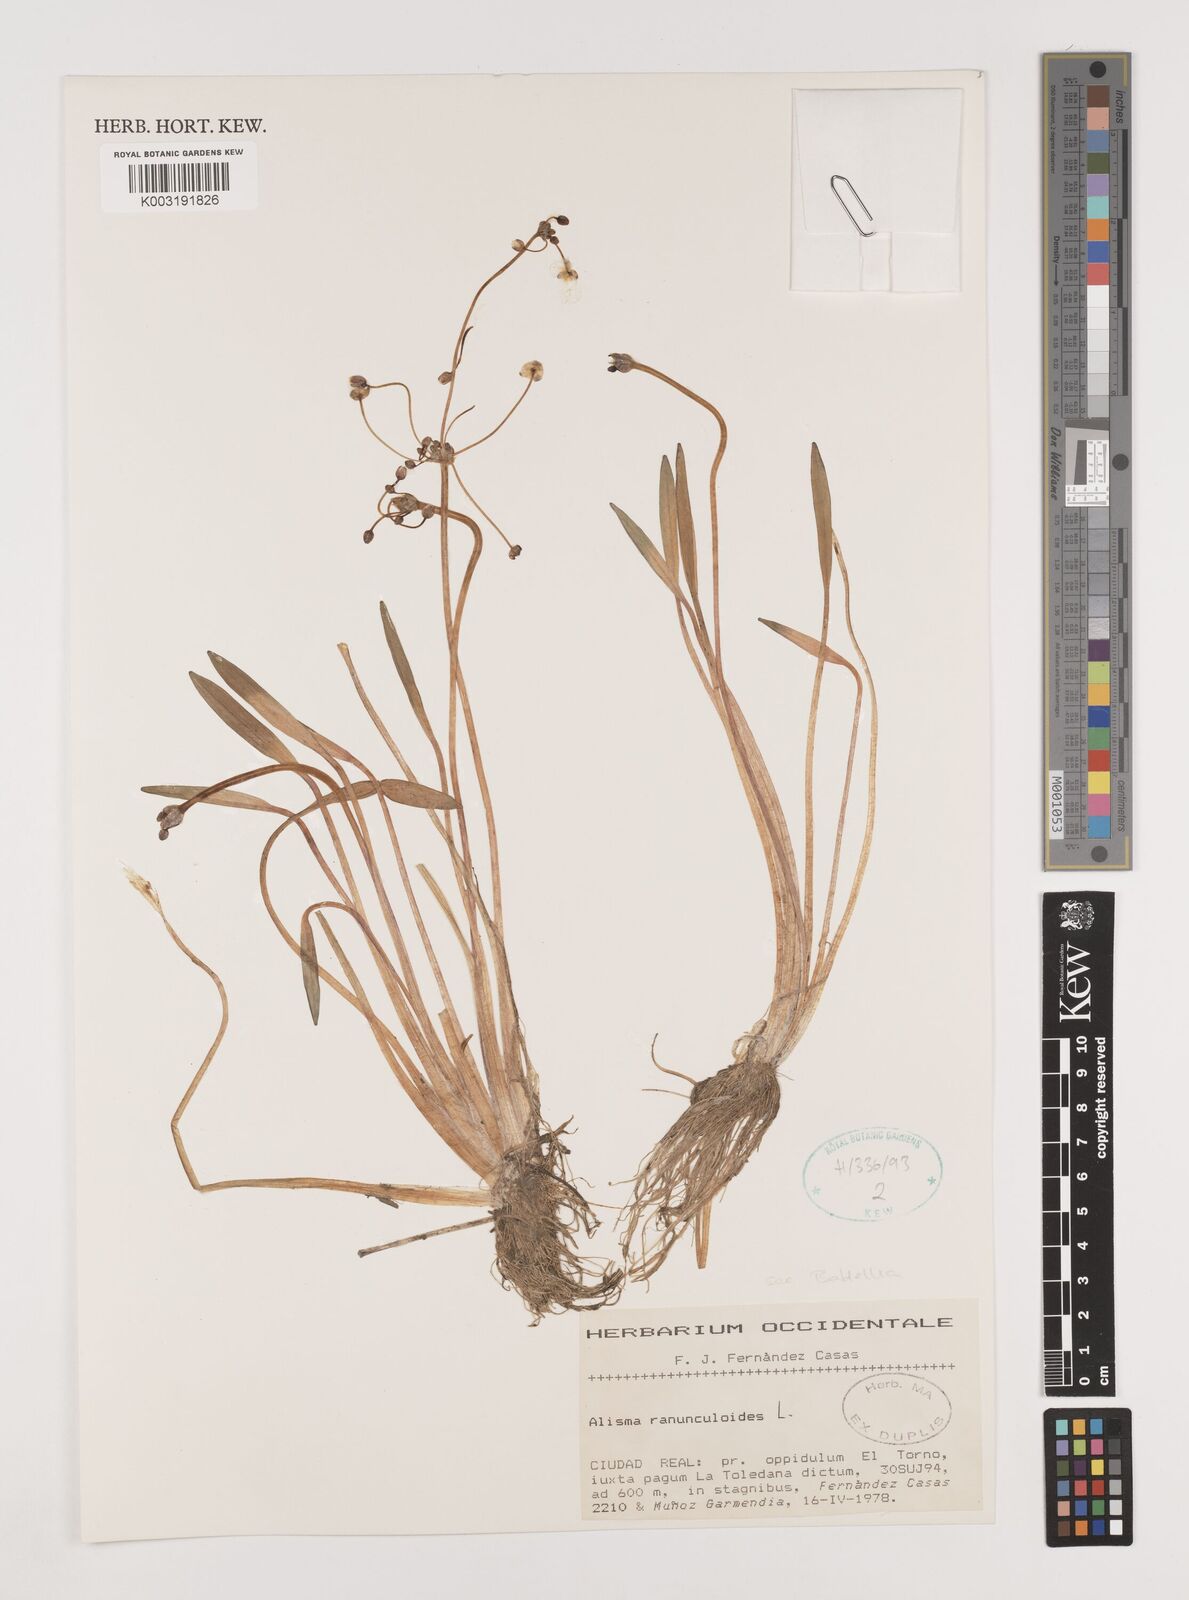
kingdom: Plantae
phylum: Tracheophyta
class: Liliopsida
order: Alismatales
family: Alismataceae
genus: Baldellia
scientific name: Baldellia ranunculoides
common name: Lesser water-plantain
